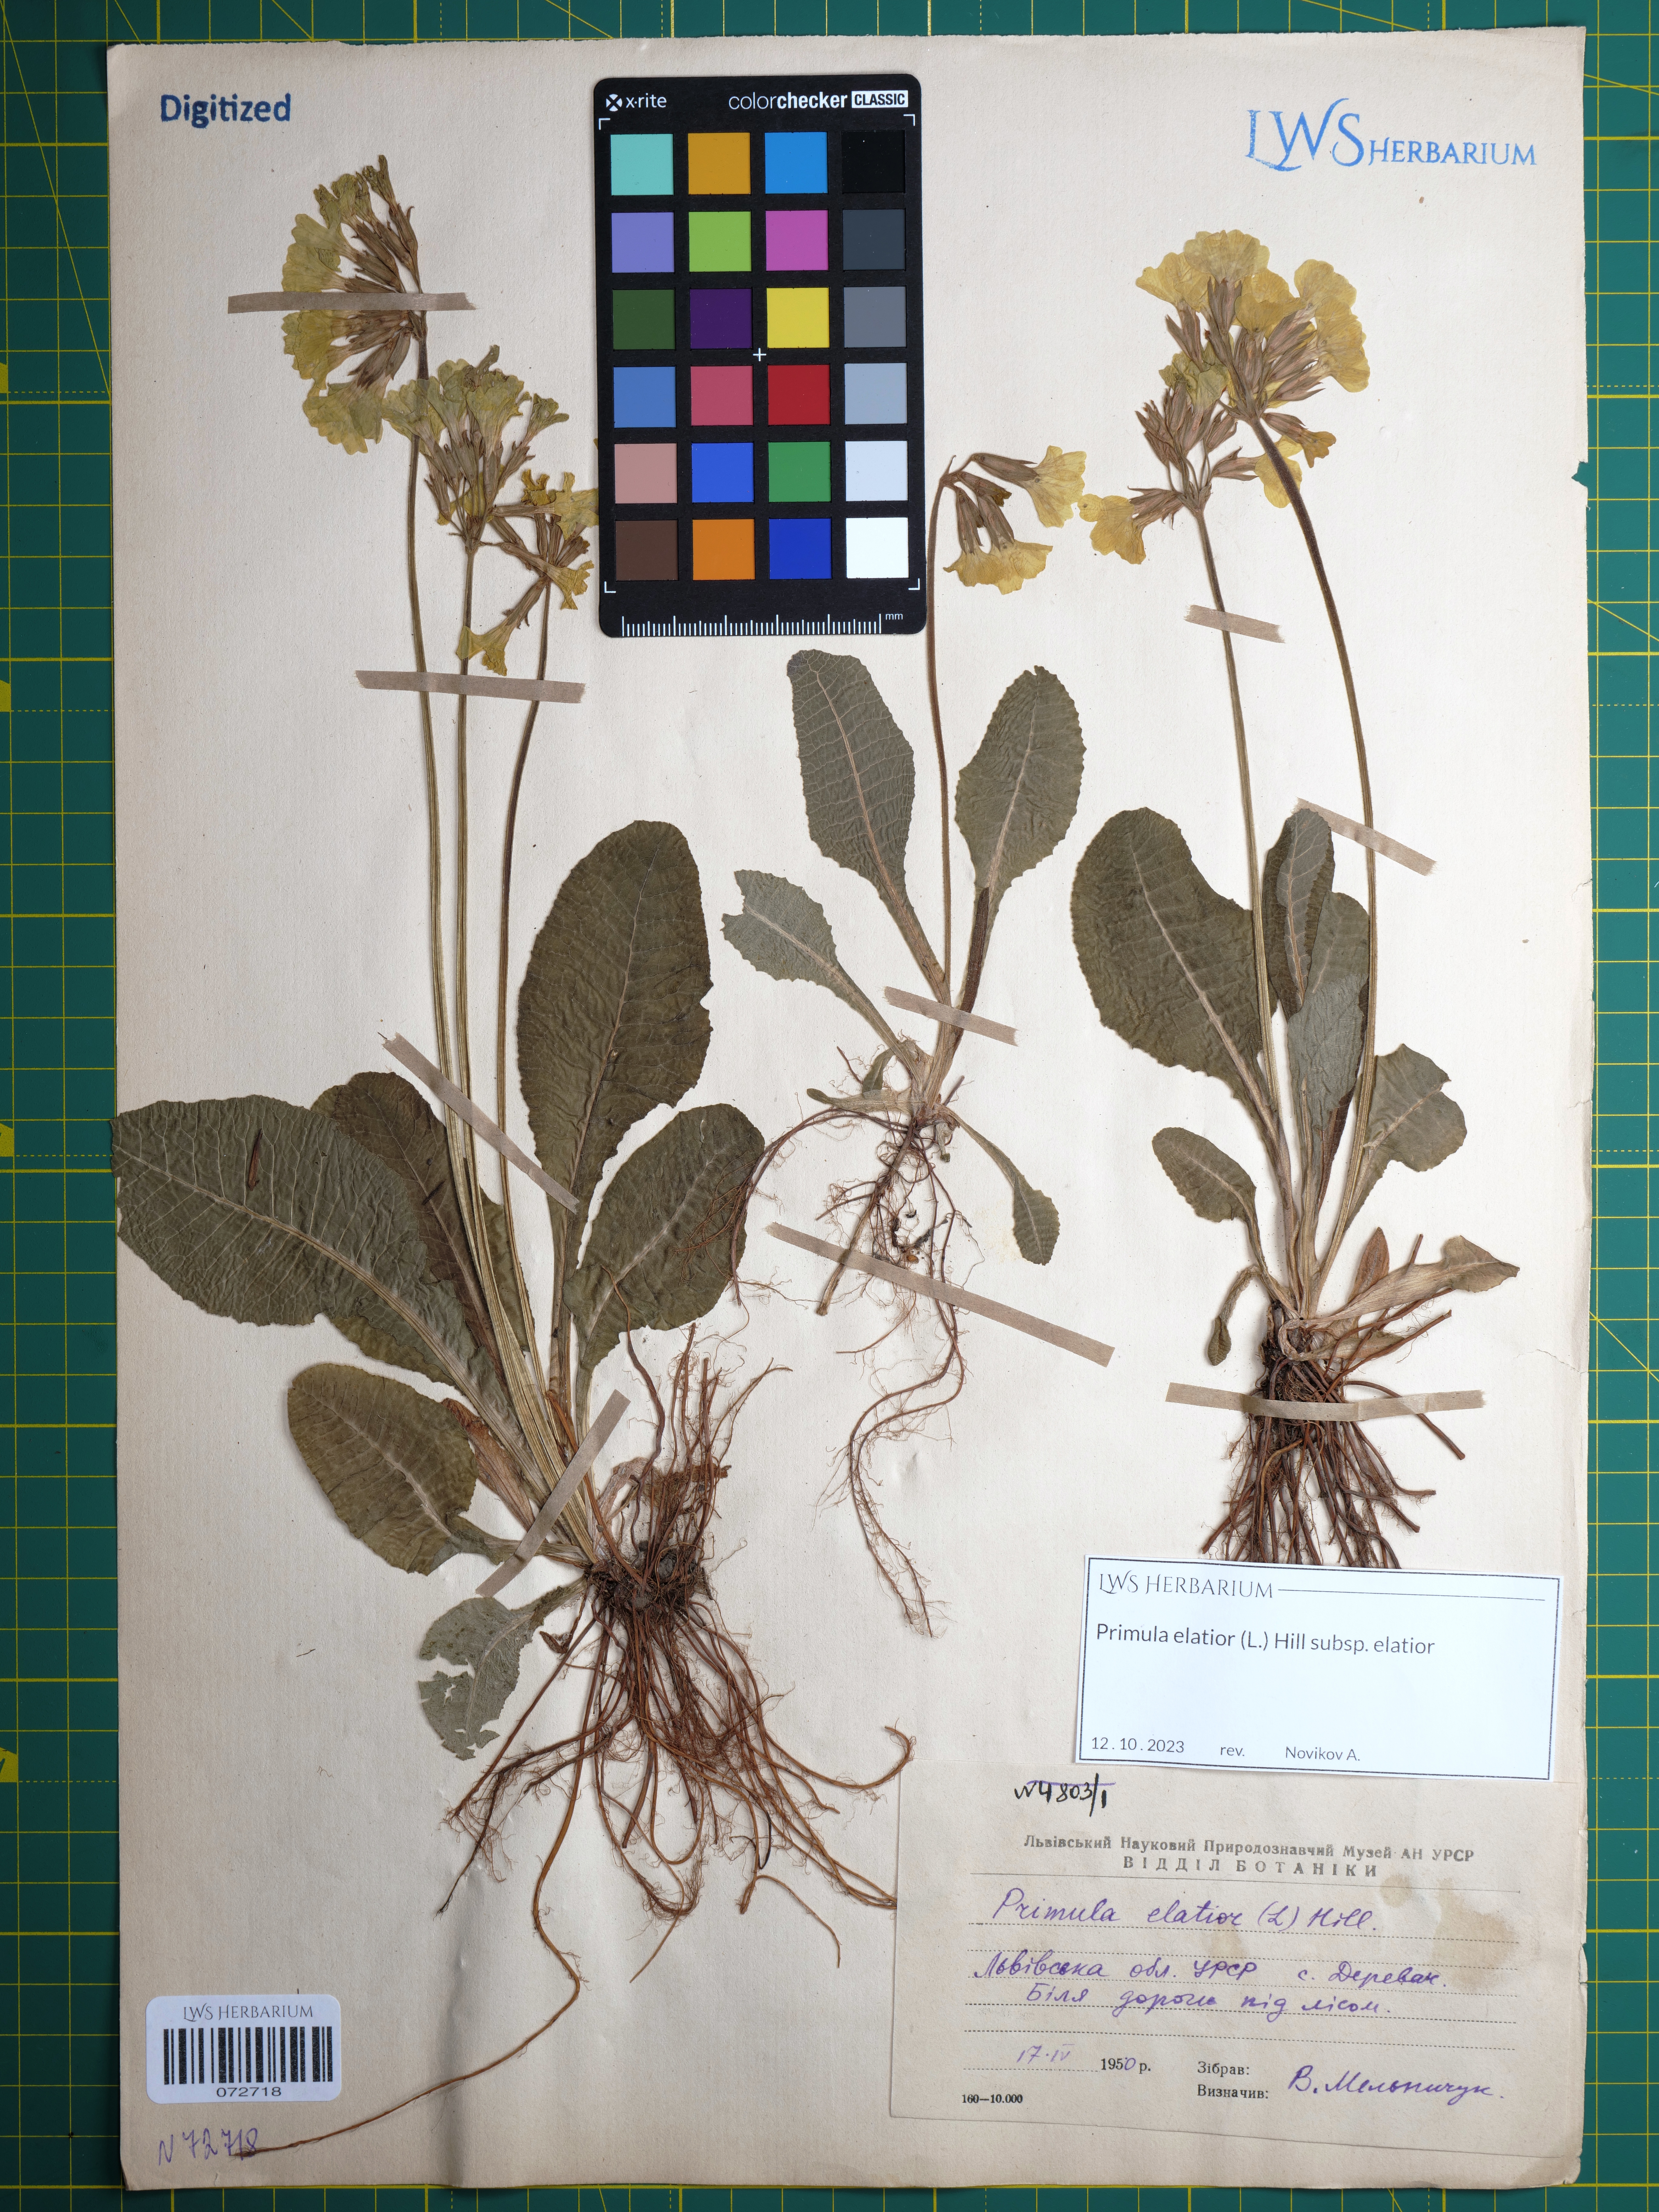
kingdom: Plantae
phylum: Tracheophyta
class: Magnoliopsida
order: Ericales
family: Primulaceae
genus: Primula
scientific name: Primula elatior
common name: Oxlip
